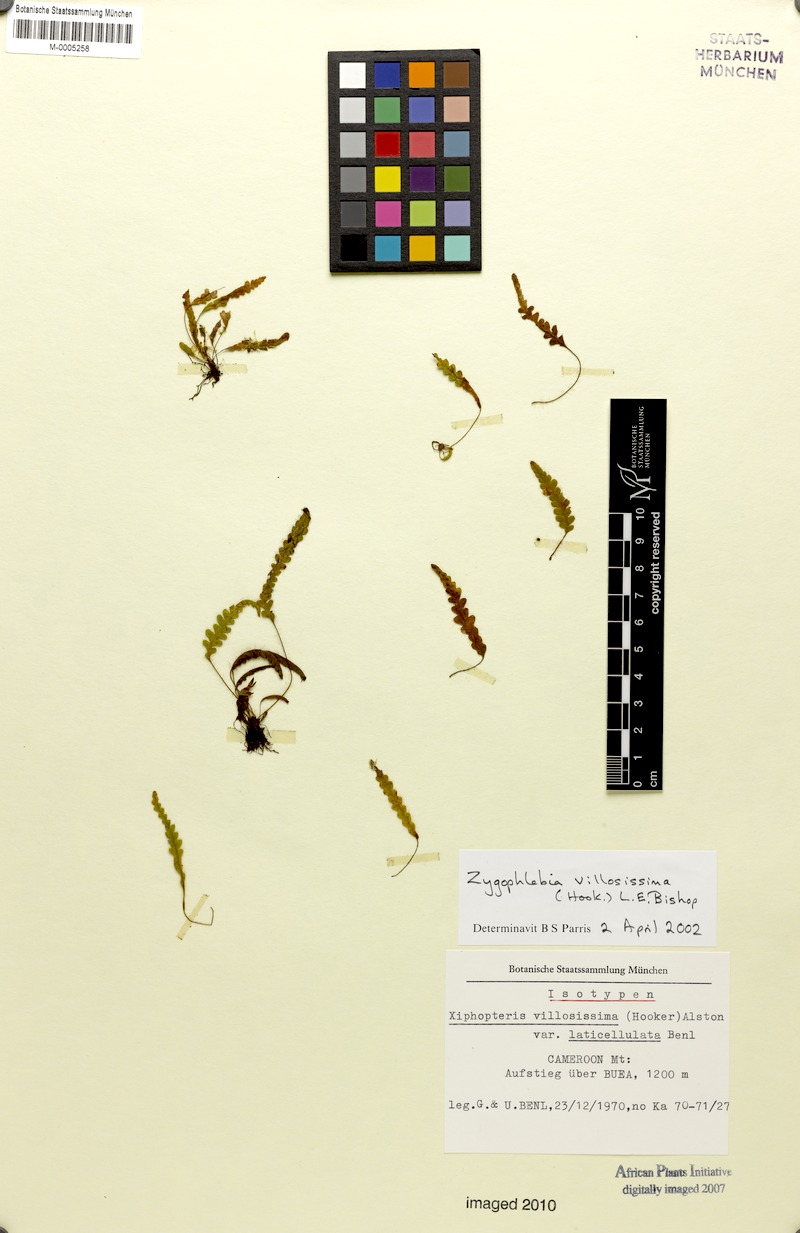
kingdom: Plantae
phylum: Tracheophyta
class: Polypodiopsida
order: Polypodiales
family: Polypodiaceae
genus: Enterosora
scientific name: Enterosora villosissima
